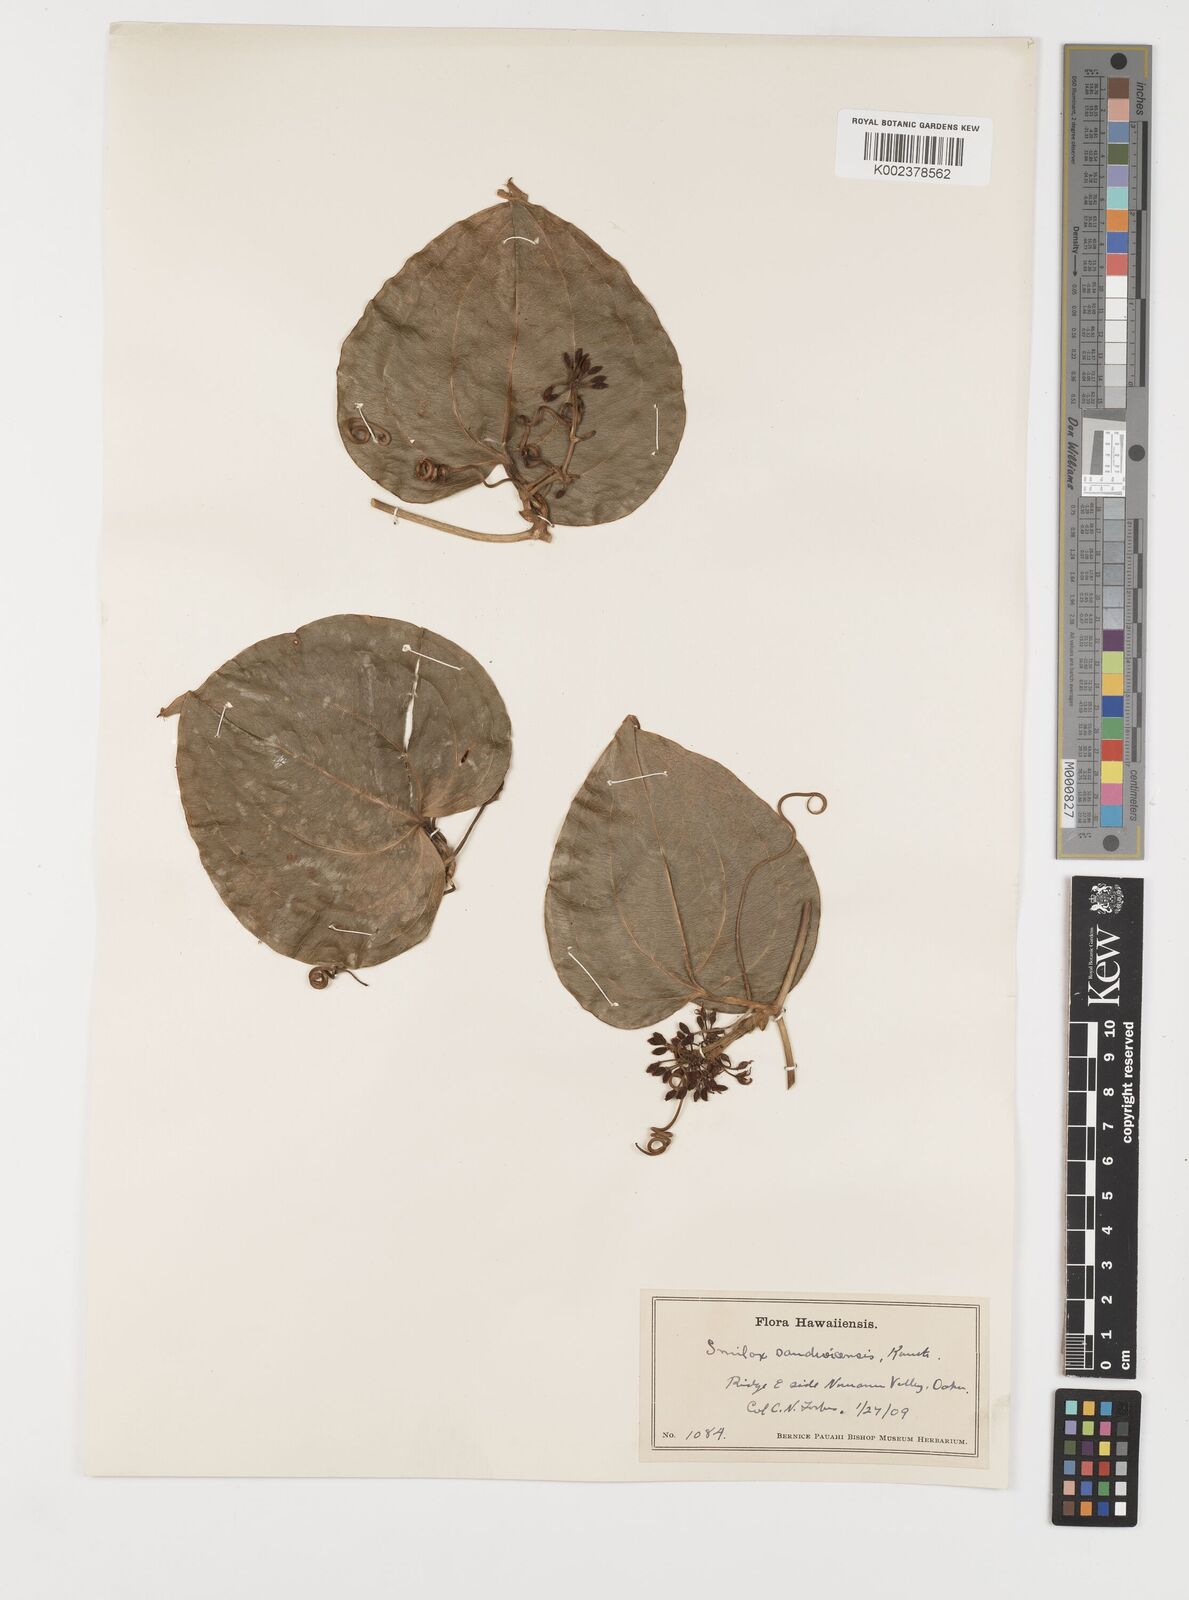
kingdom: Plantae
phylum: Tracheophyta
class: Liliopsida
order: Liliales
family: Smilacaceae
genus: Smilax
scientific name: Smilax melastomifolia
